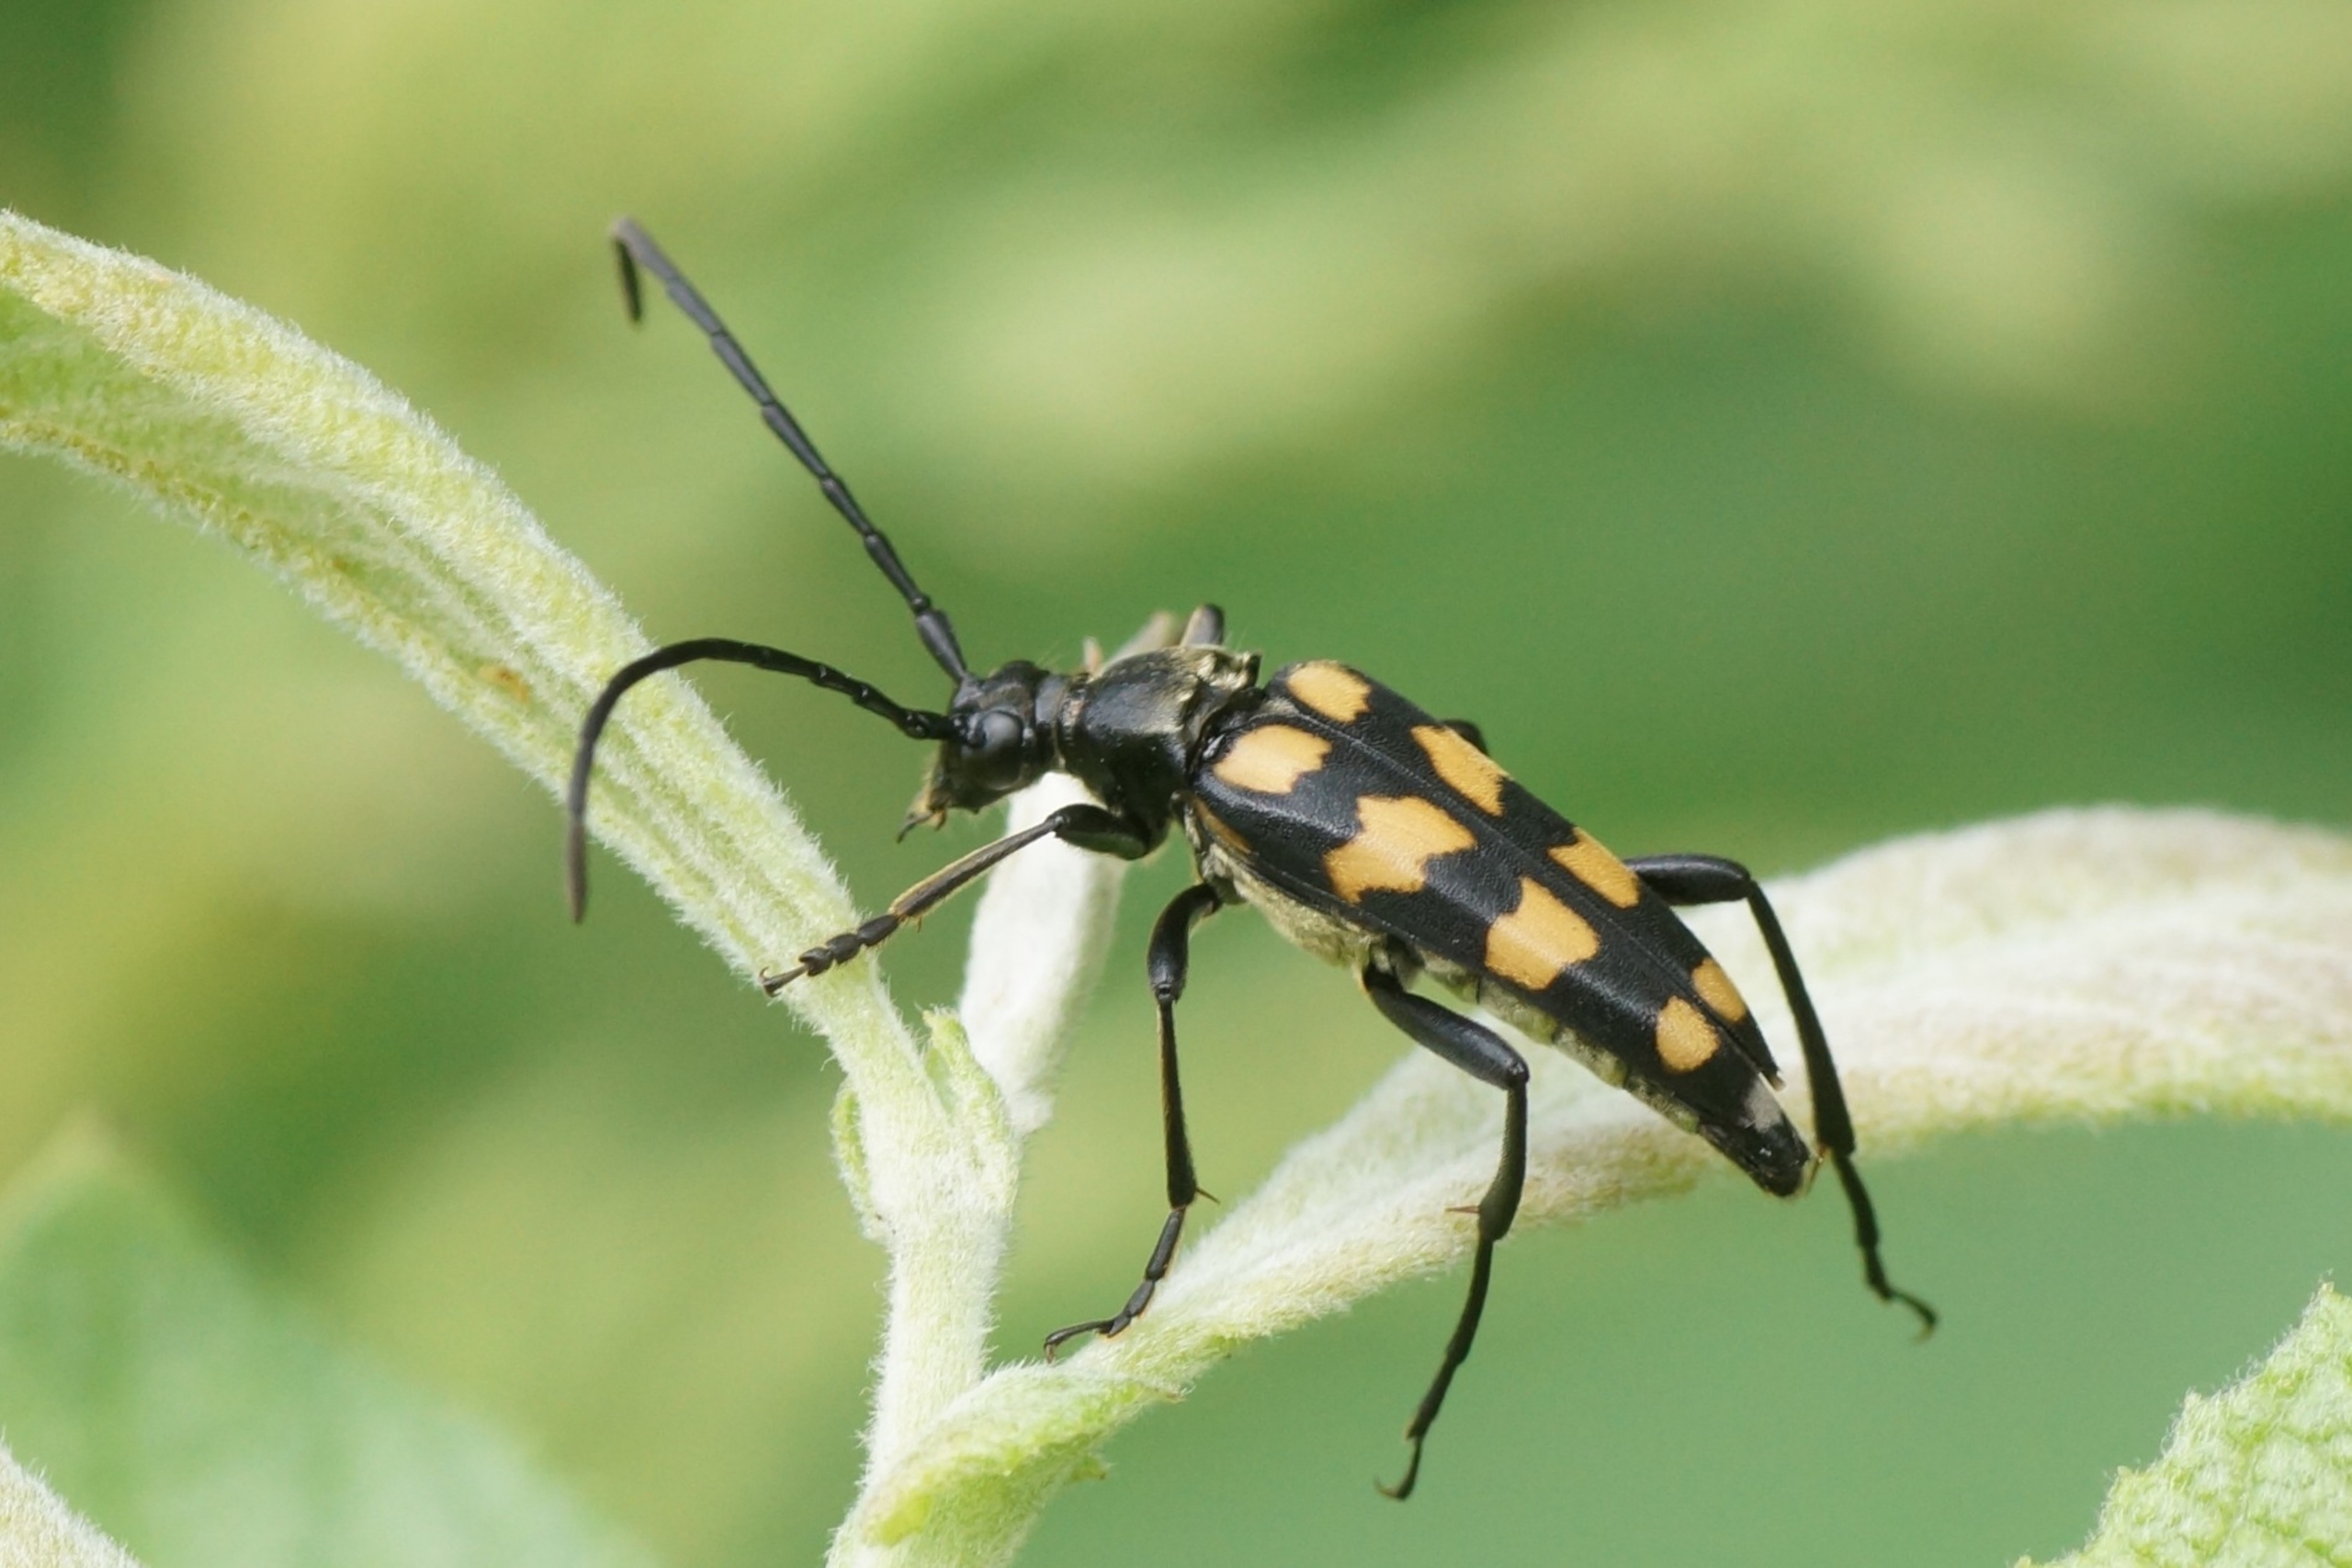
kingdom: Animalia
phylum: Arthropoda
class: Insecta
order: Coleoptera
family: Cerambycidae
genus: Leptura
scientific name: Leptura quadrifasciata
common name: Firebåndet blomsterbuk
